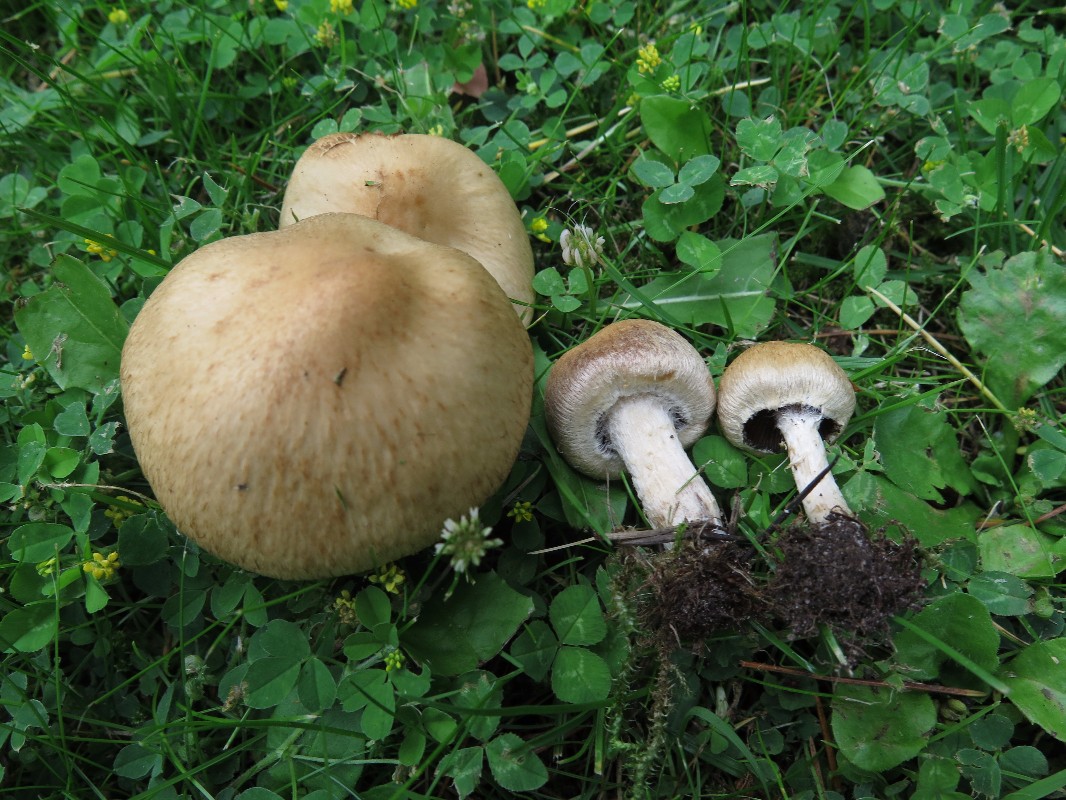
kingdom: Fungi
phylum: Basidiomycota
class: Agaricomycetes
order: Agaricales
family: Psathyrellaceae
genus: Lacrymaria
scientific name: Lacrymaria lacrymabunda
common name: grædende mørkhat
